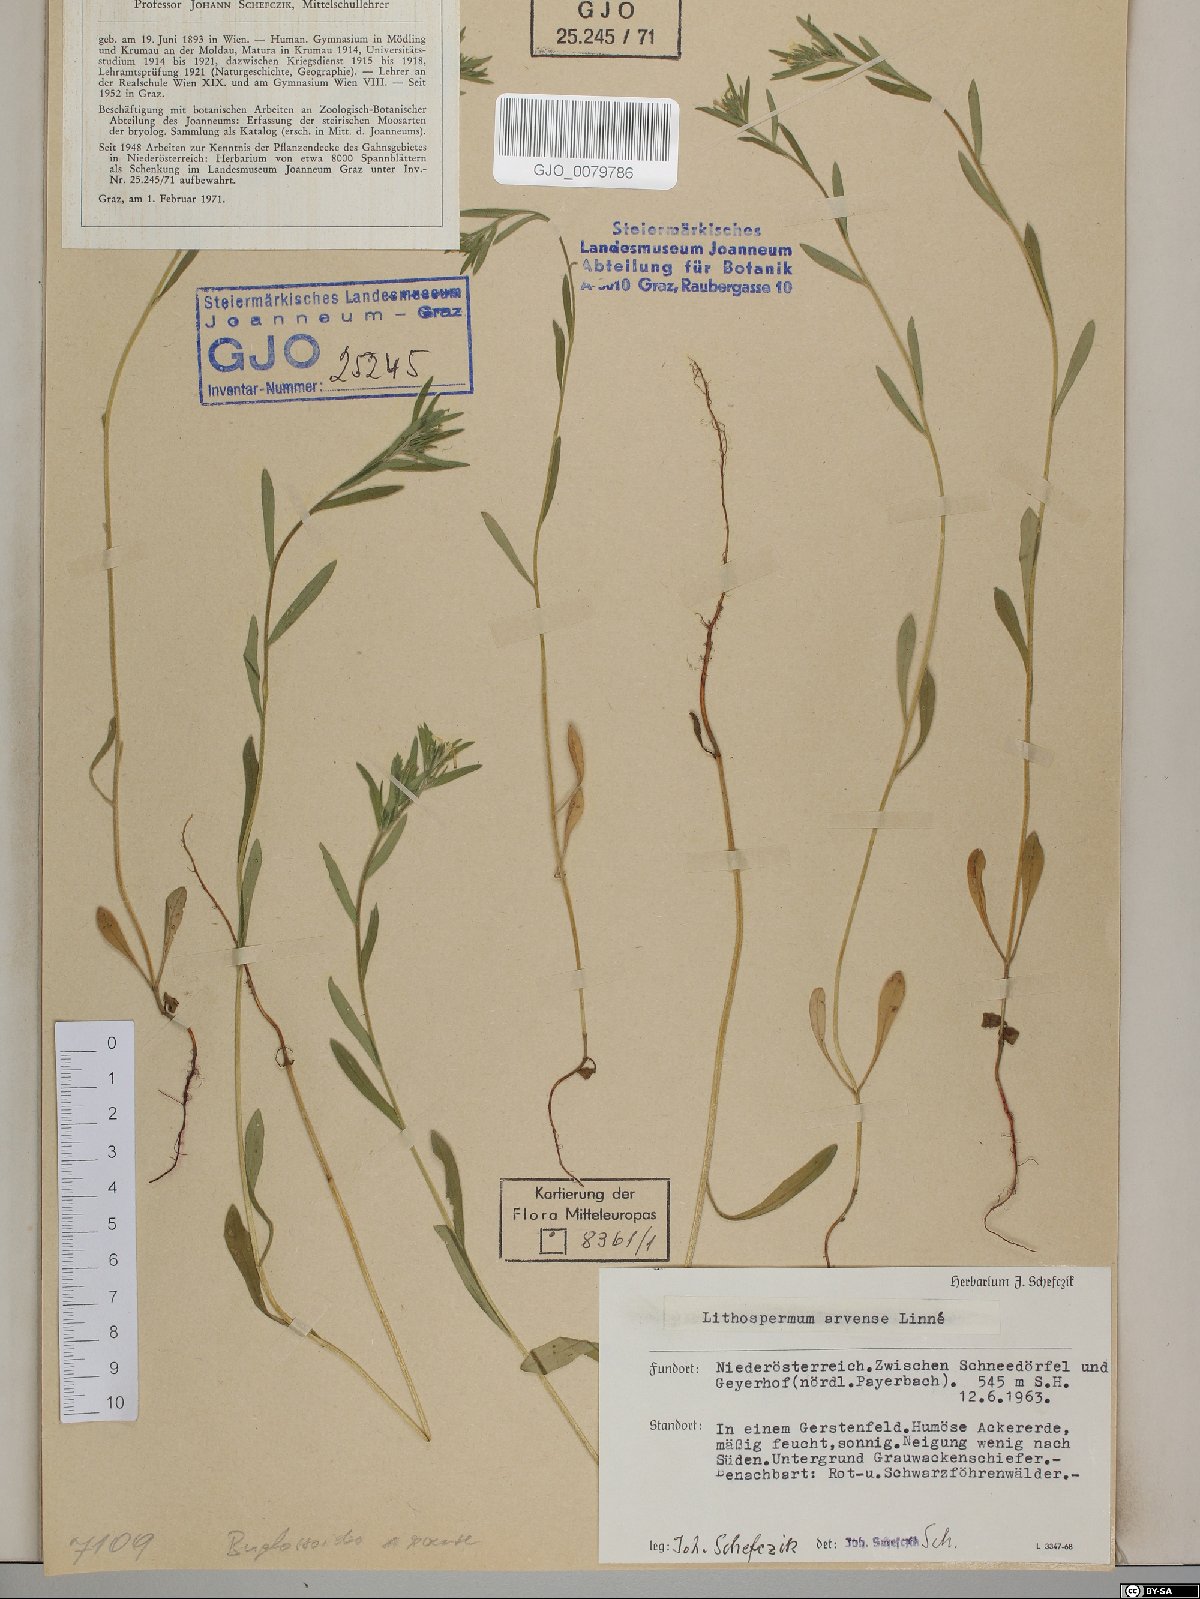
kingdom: Plantae
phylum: Tracheophyta
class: Magnoliopsida
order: Boraginales
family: Boraginaceae
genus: Buglossoides
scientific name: Buglossoides arvensis
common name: Corn gromwell
